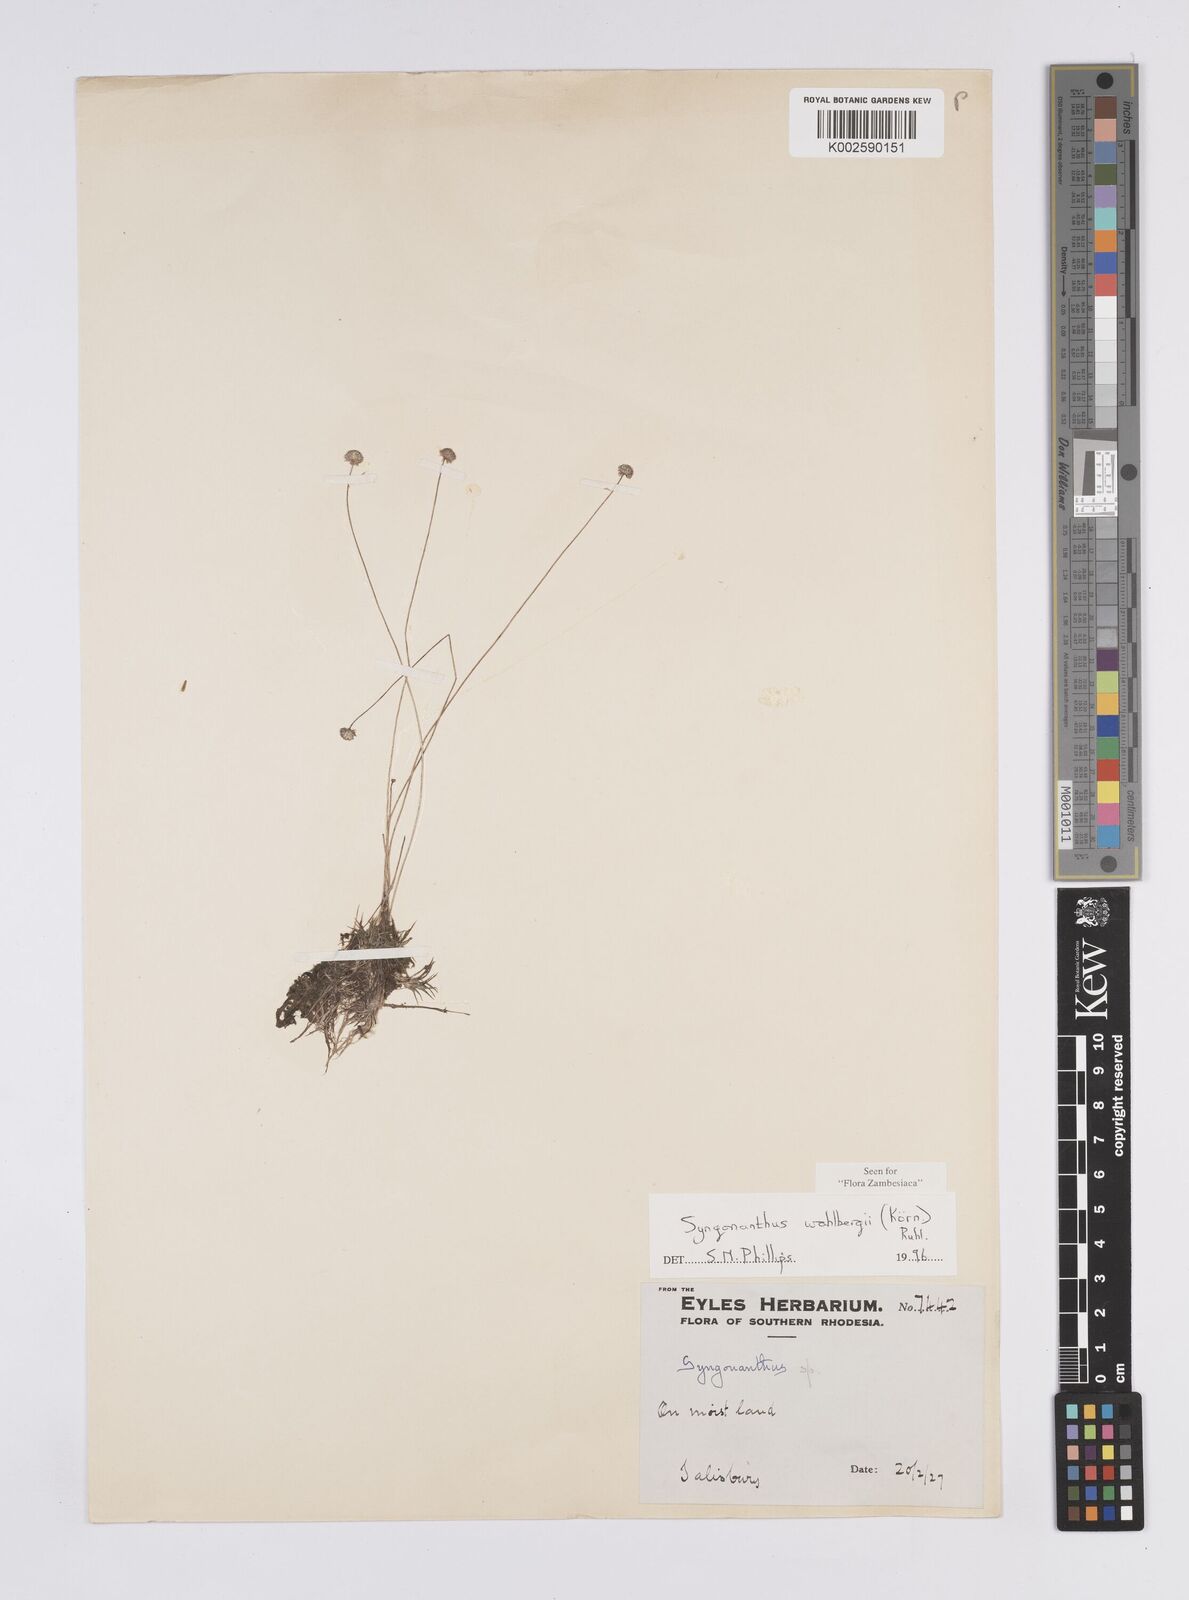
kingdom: Plantae
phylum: Tracheophyta
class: Liliopsida
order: Poales
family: Eriocaulaceae
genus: Syngonanthus
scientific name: Syngonanthus wahlbergii
